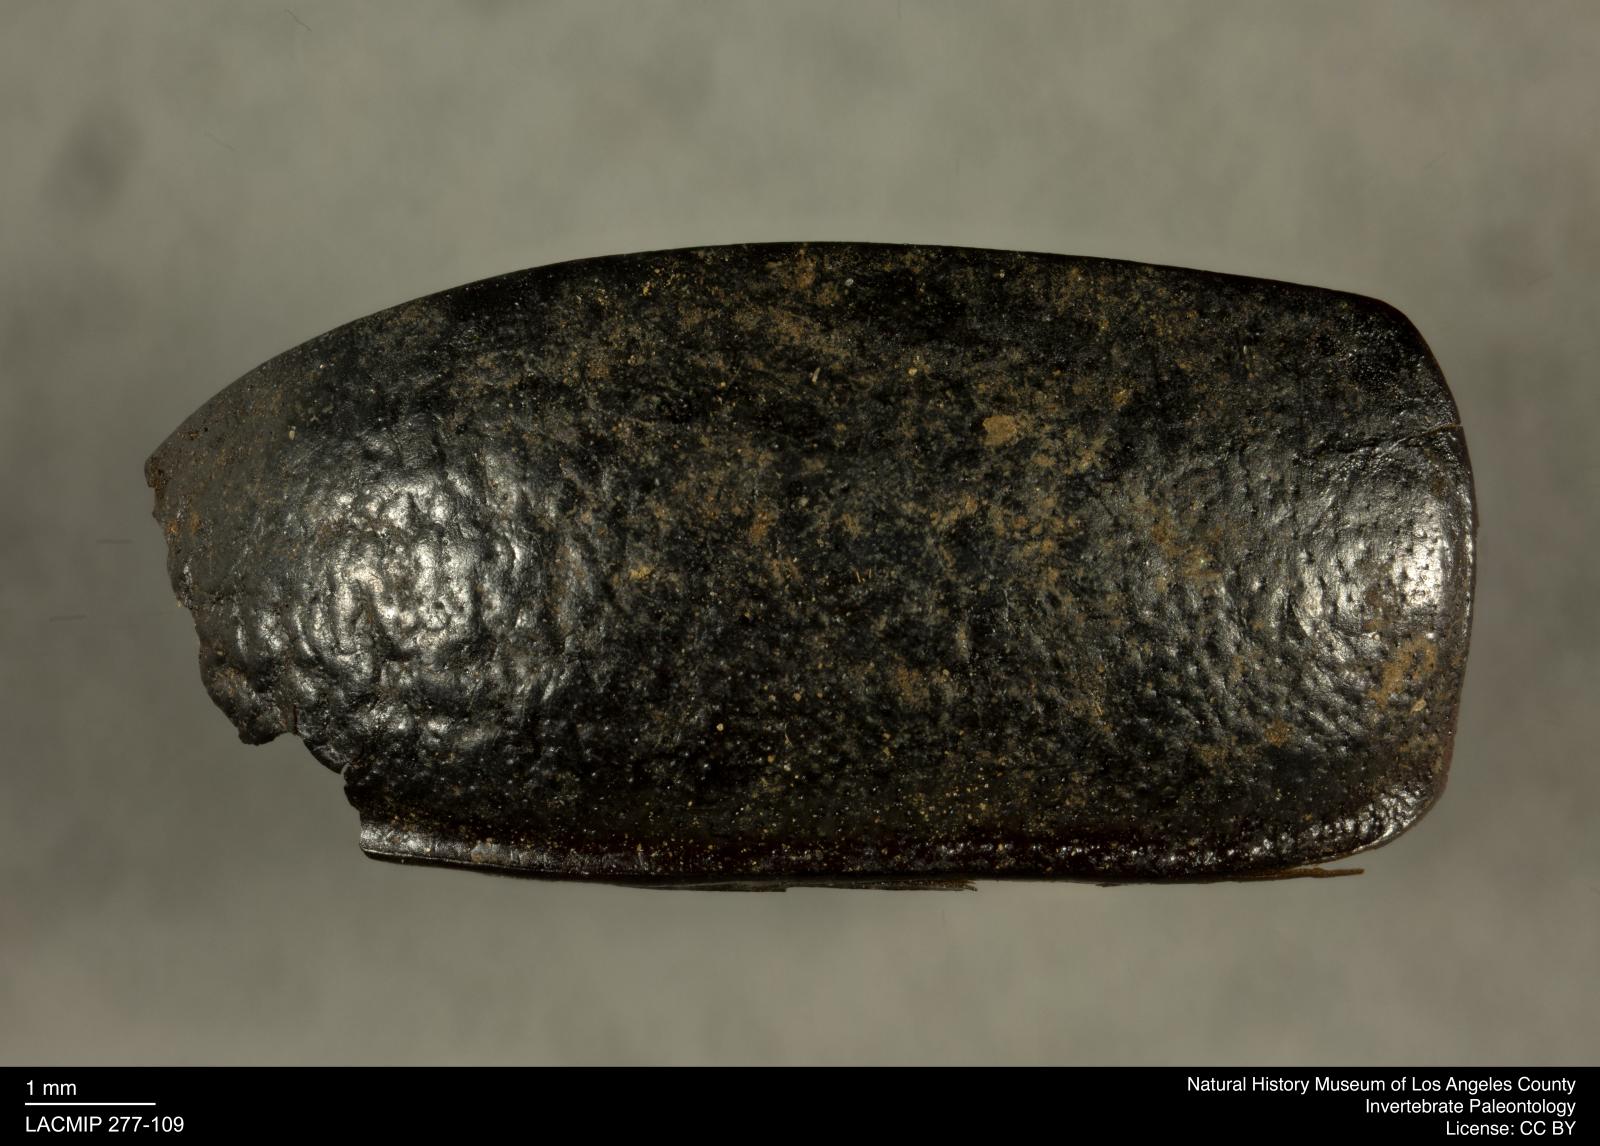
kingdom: Animalia
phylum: Arthropoda
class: Insecta
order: Coleoptera
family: Tenebrionidae
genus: Coniontis
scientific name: Coniontis abdominalis
